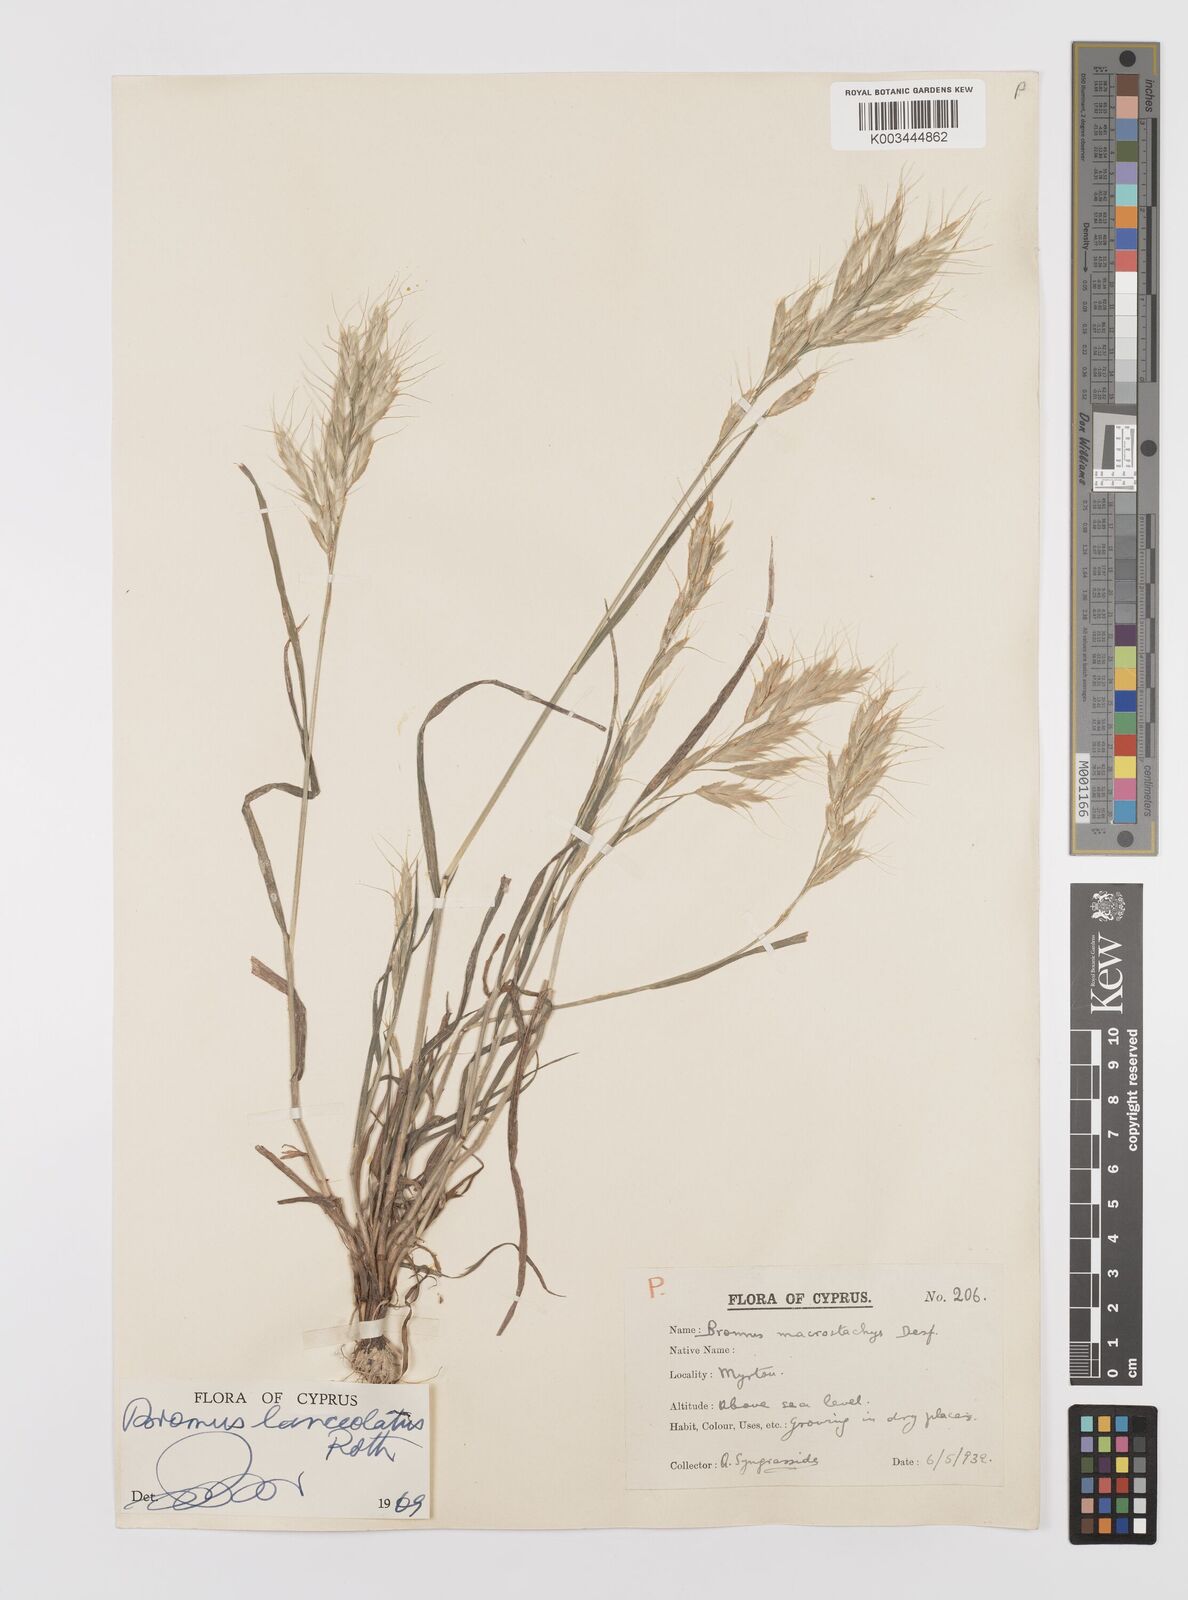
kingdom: Plantae
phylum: Tracheophyta
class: Liliopsida
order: Poales
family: Poaceae
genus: Bromus
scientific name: Bromus lanceolatus
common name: Mediterranean brome
